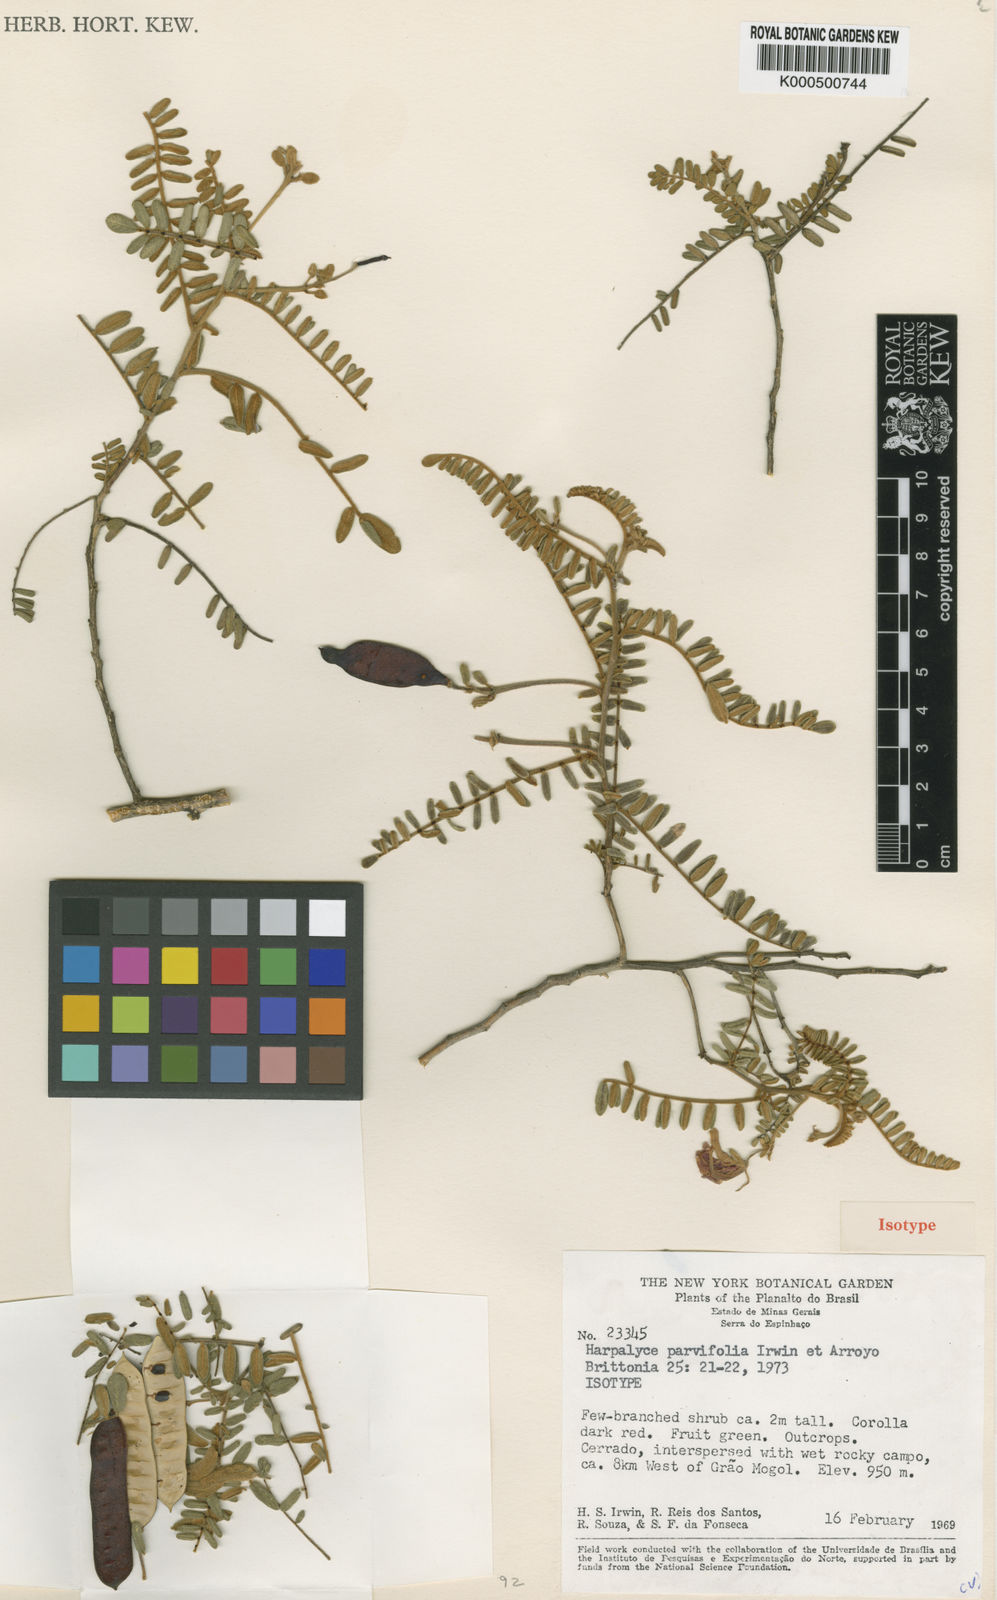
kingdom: Plantae
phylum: Tracheophyta
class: Magnoliopsida
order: Fabales
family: Fabaceae
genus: Harpalyce
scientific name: Harpalyce parvifolia
